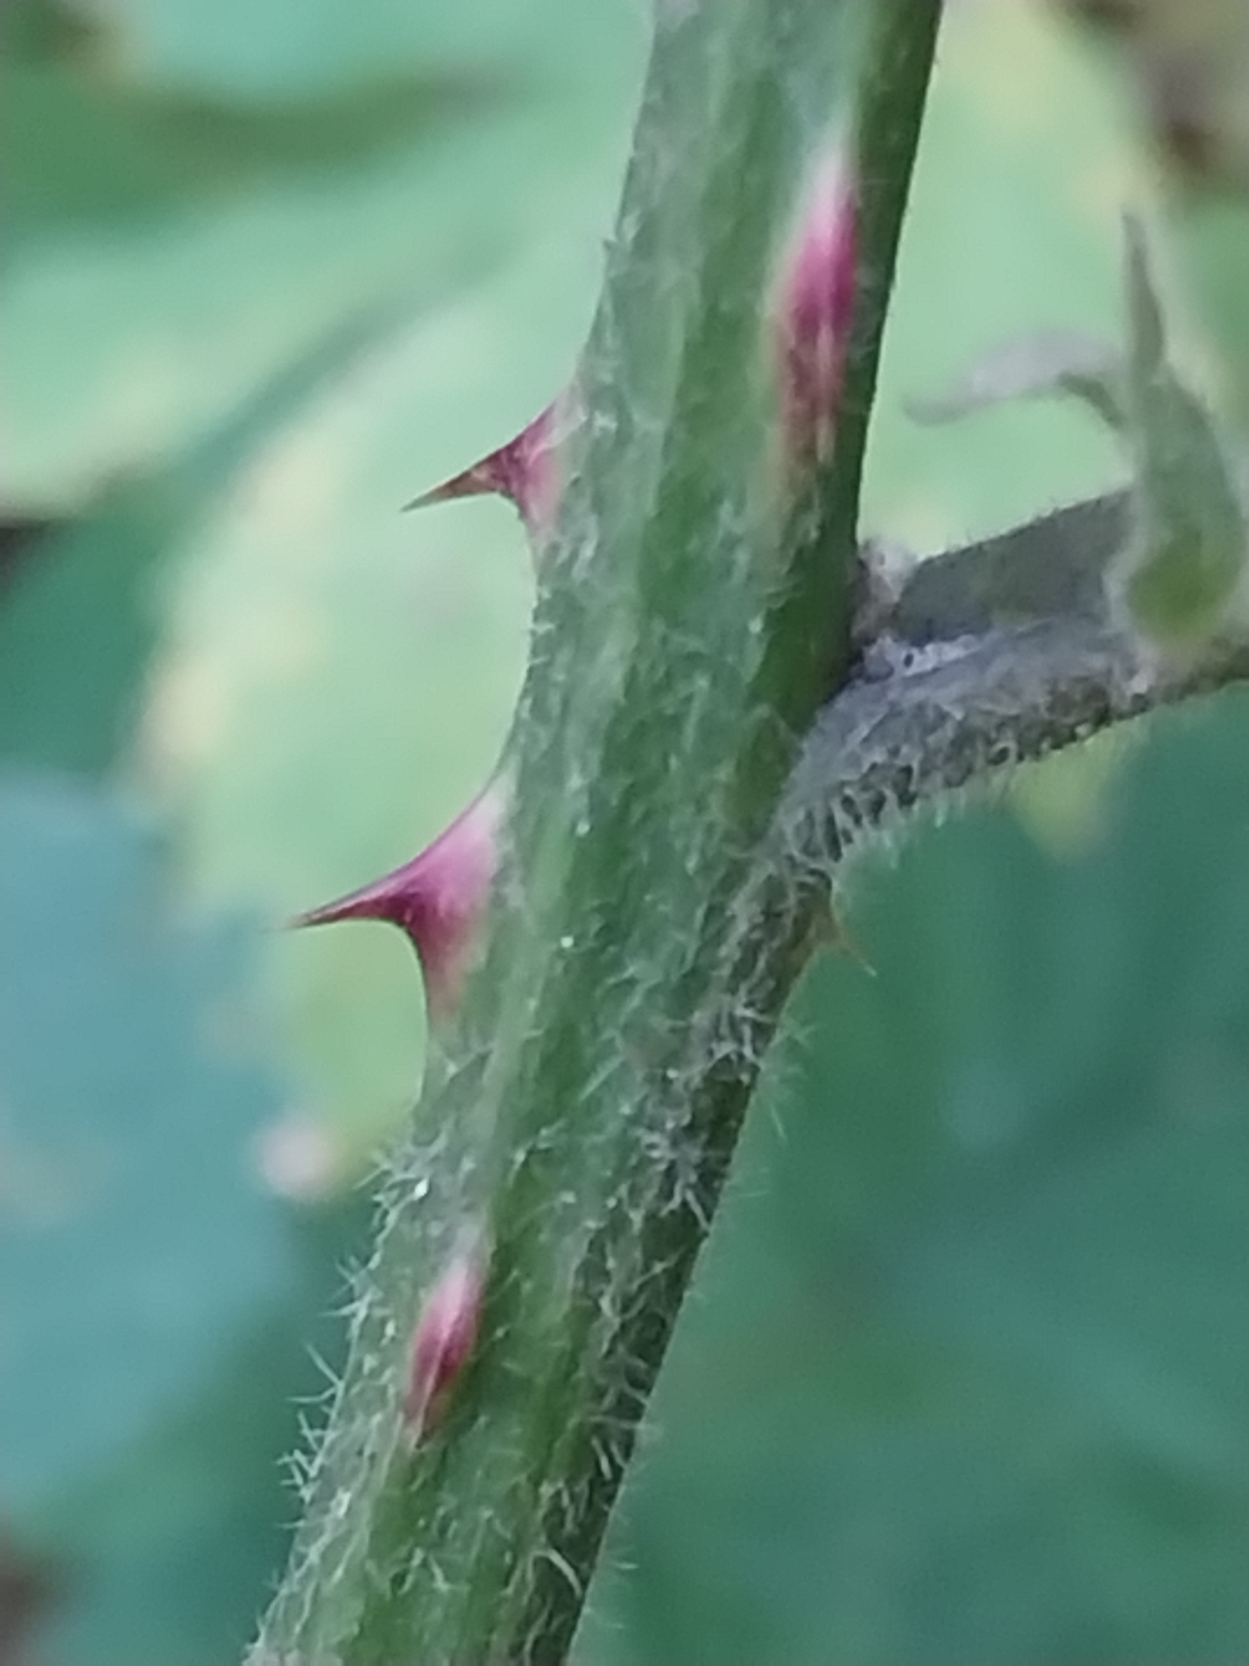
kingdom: Plantae
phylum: Tracheophyta
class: Magnoliopsida
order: Rosales
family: Rosaceae
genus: Rubus
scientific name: Rubus armeniacus
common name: Armensk brombær
